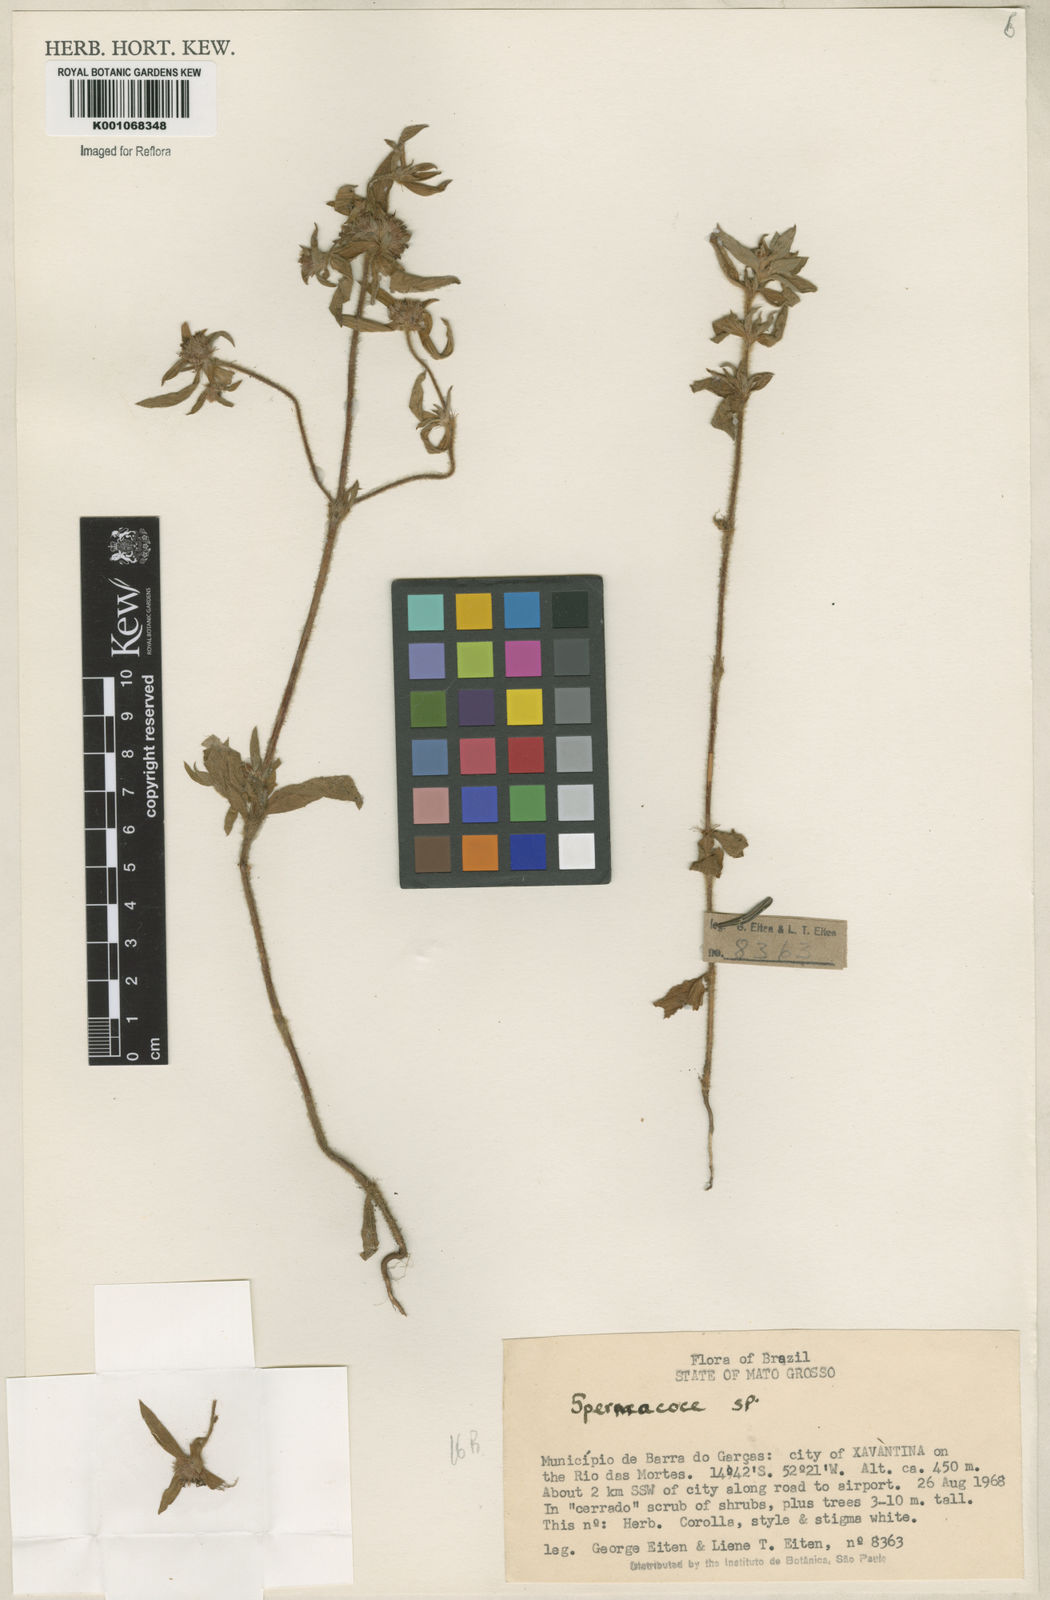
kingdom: Plantae
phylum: Tracheophyta
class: Magnoliopsida
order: Gentianales
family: Rubiaceae
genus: Spermacoce
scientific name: Spermacoce
